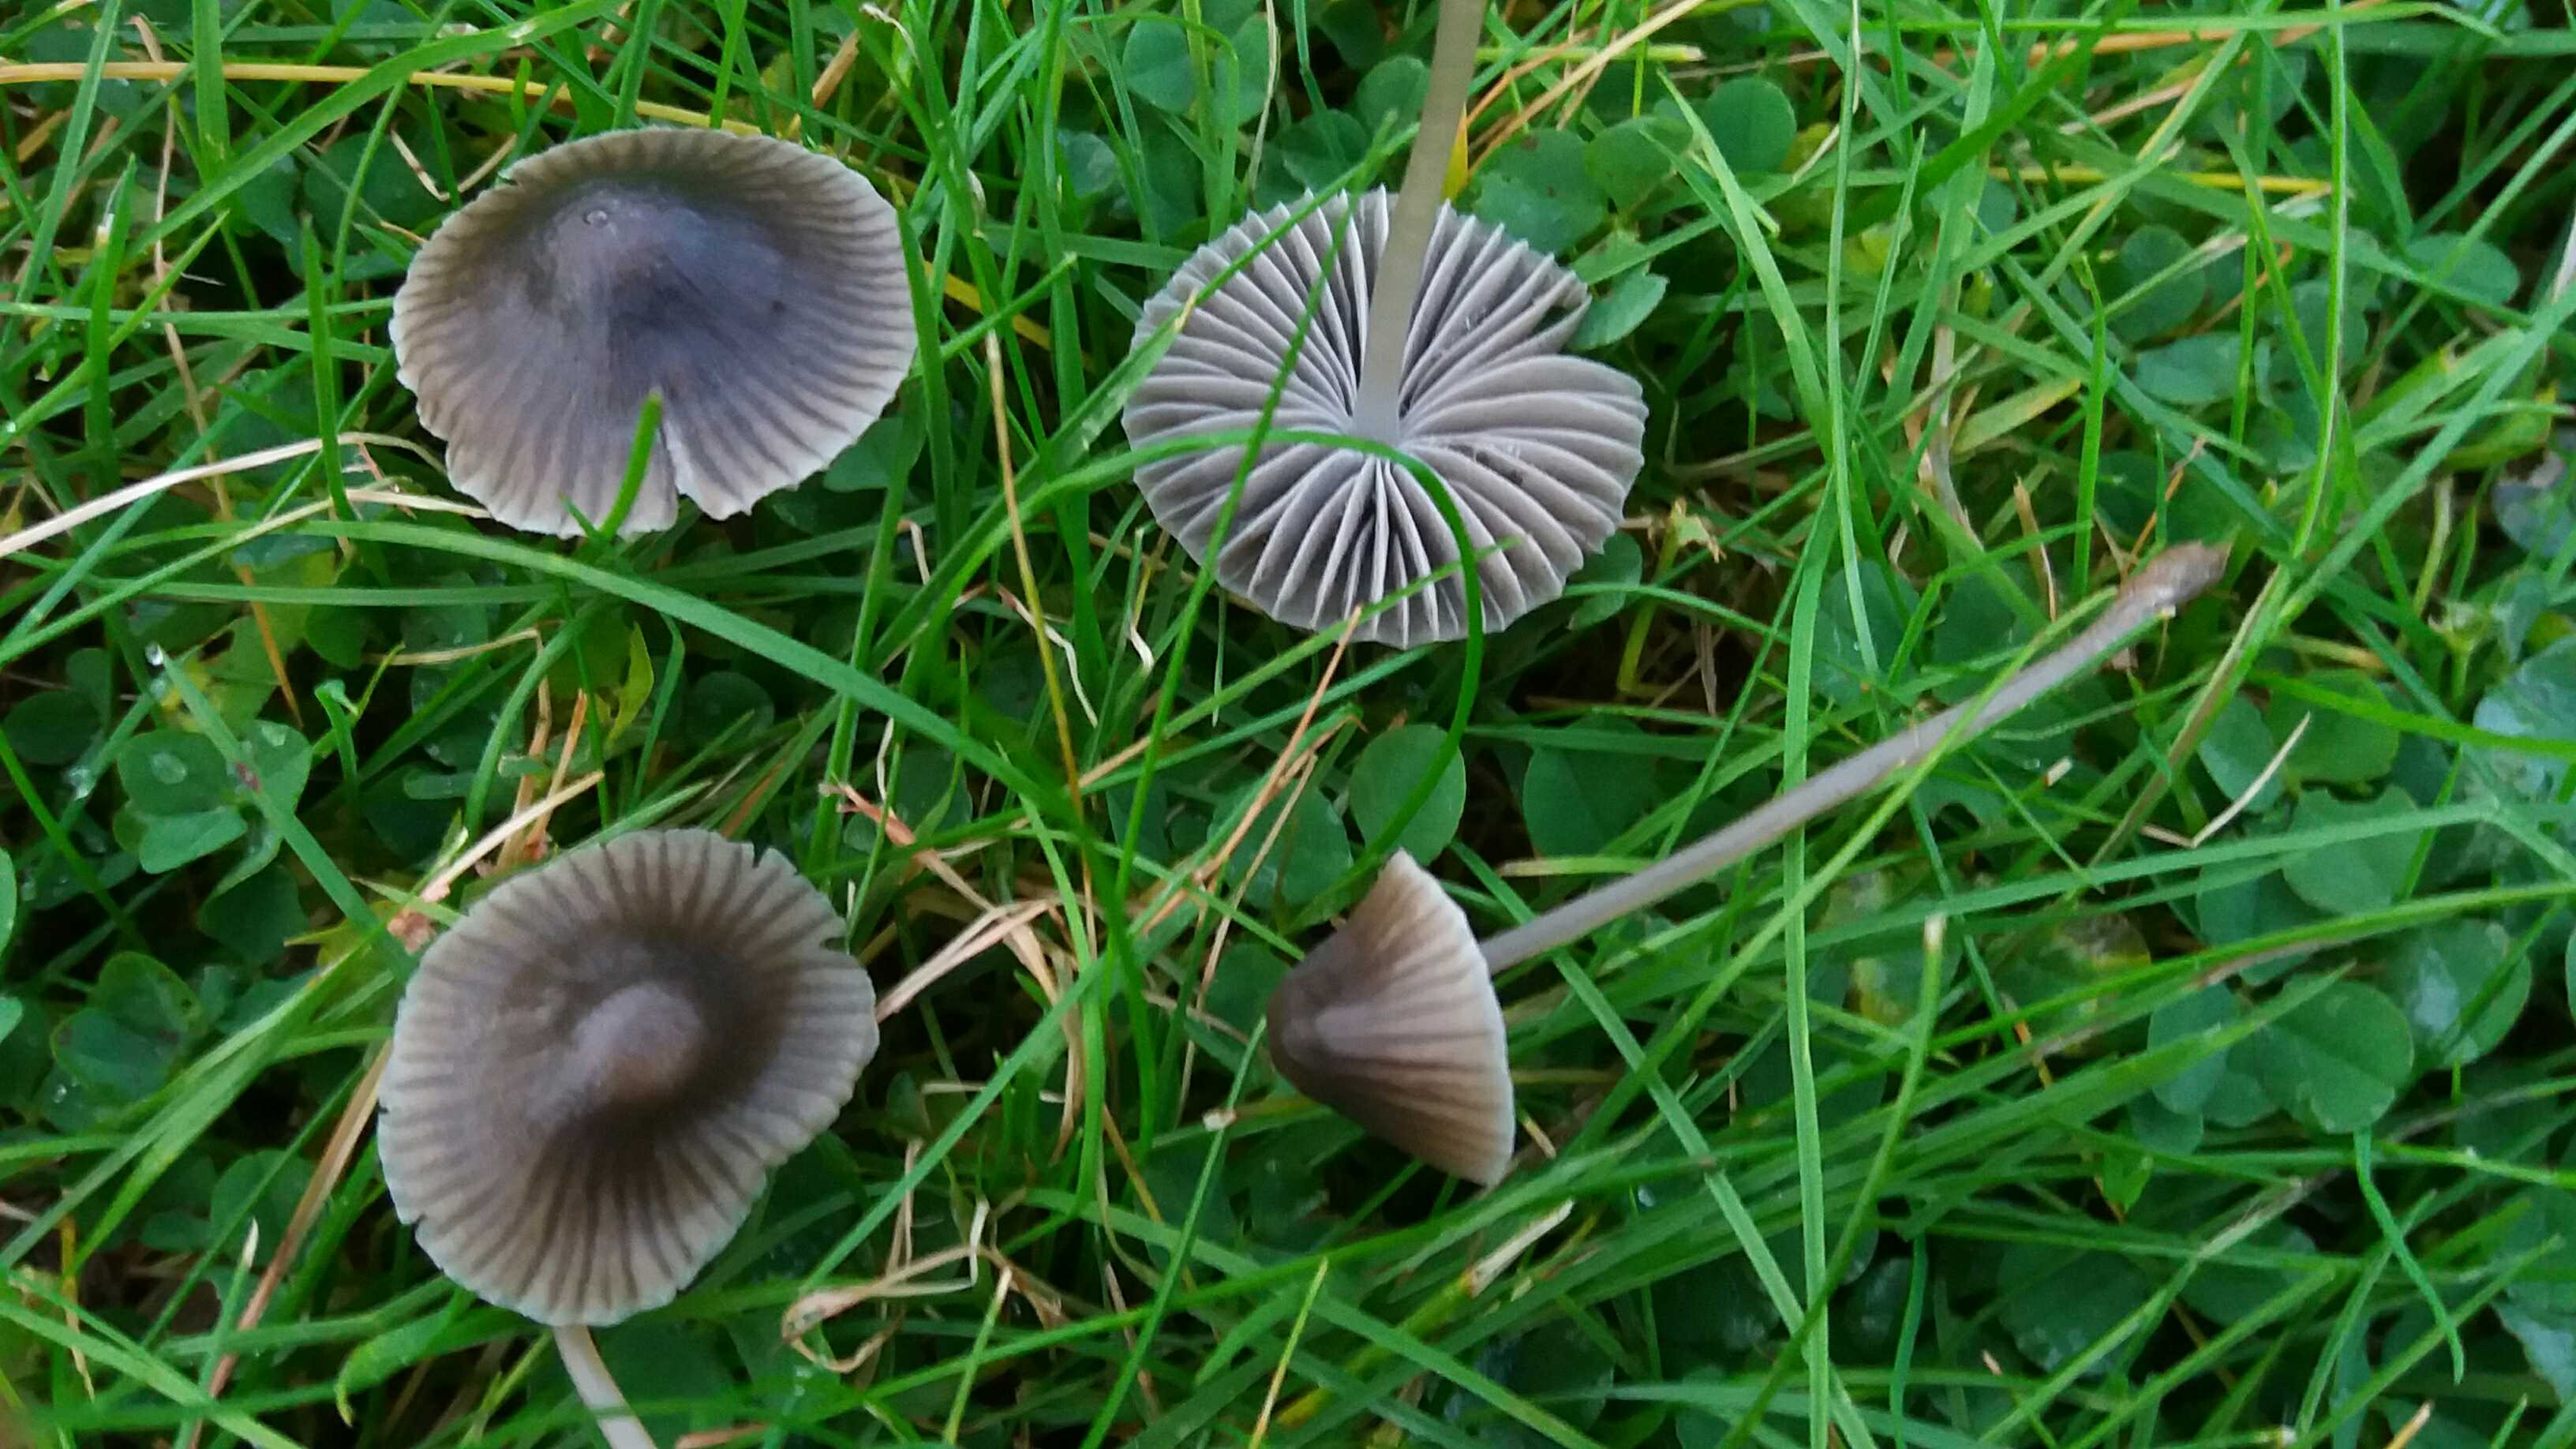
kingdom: Fungi
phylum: Basidiomycota
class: Agaricomycetes
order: Agaricales
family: Mycenaceae
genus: Mycena
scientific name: Mycena aetites
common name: plæne-huesvamp
